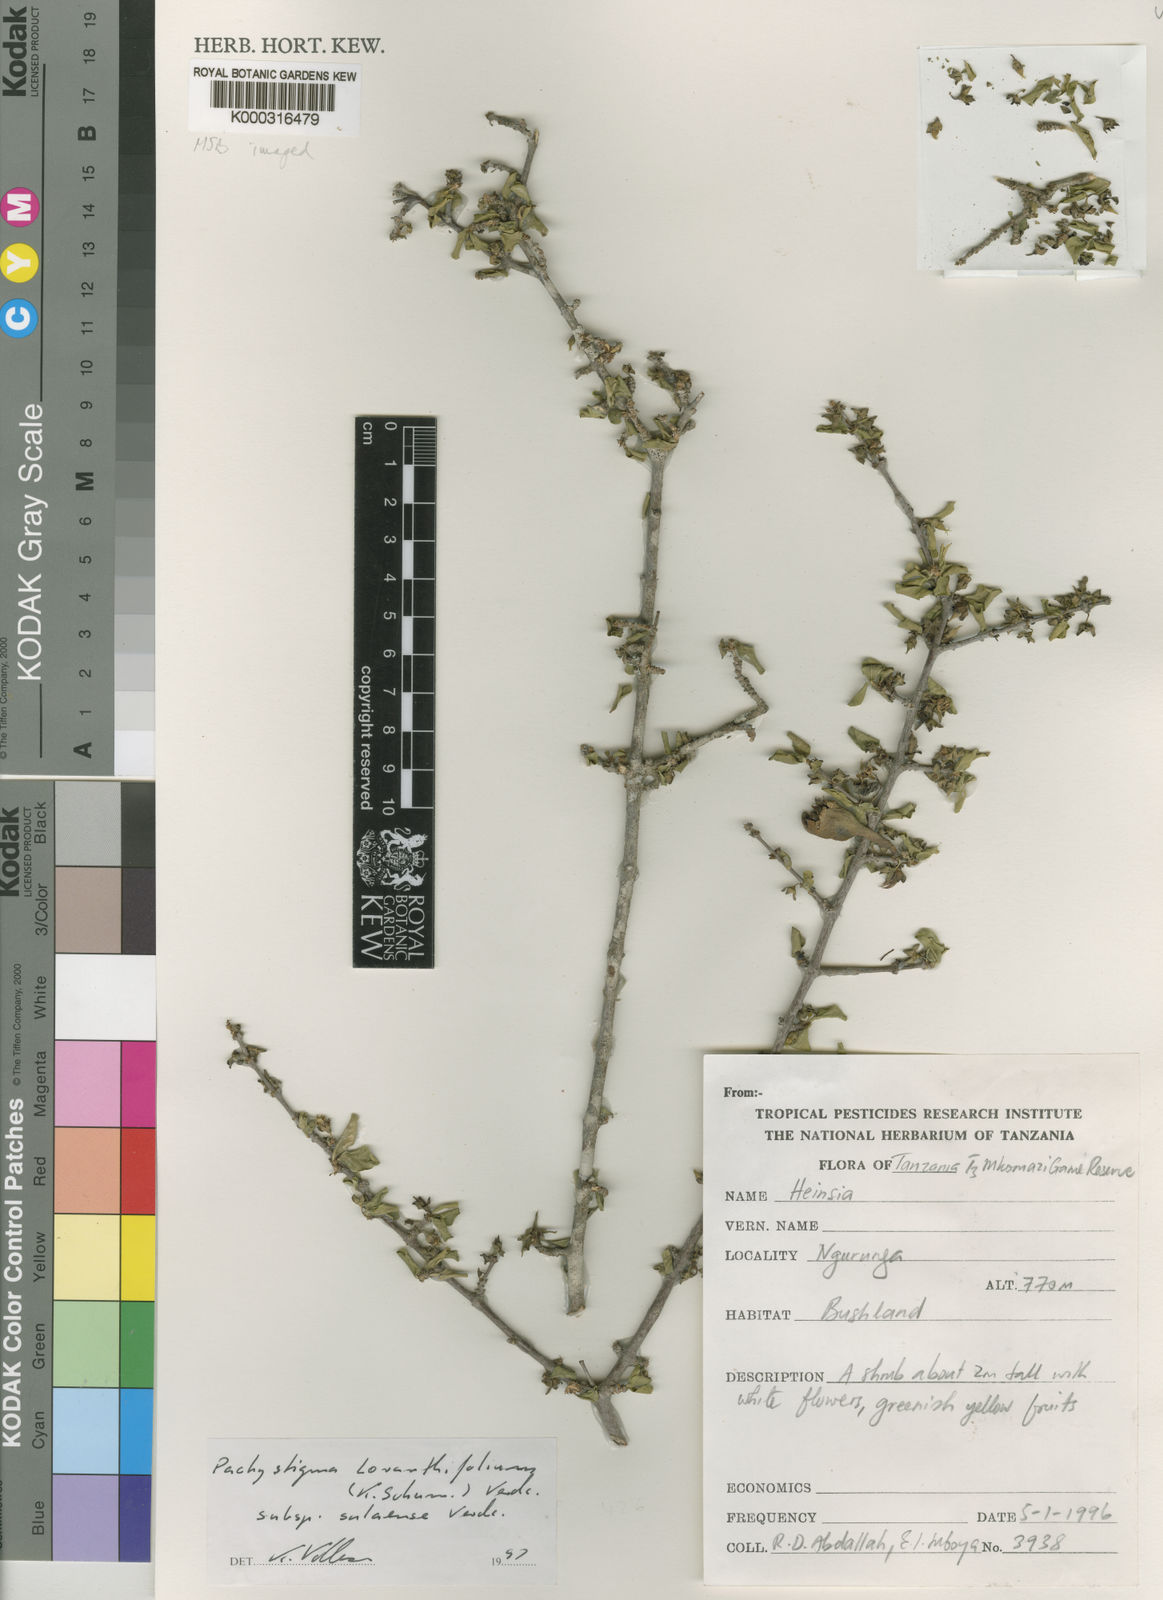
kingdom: Plantae
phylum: Tracheophyta
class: Magnoliopsida
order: Gentianales
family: Rubiaceae
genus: Vangueria
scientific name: Vangueria loranthifolia
